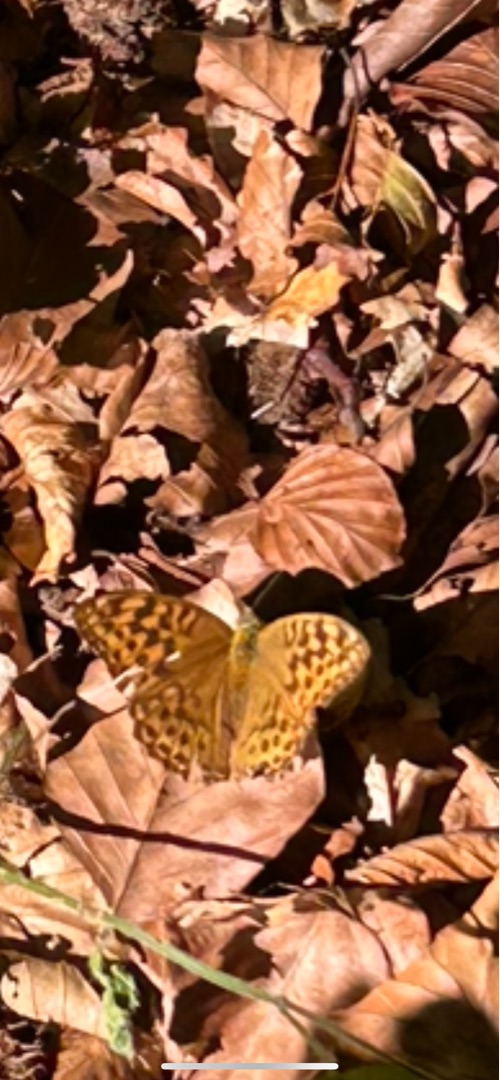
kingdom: Animalia
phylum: Arthropoda
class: Insecta
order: Lepidoptera
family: Nymphalidae
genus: Argynnis
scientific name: Argynnis paphia
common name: Kejserkåbe
